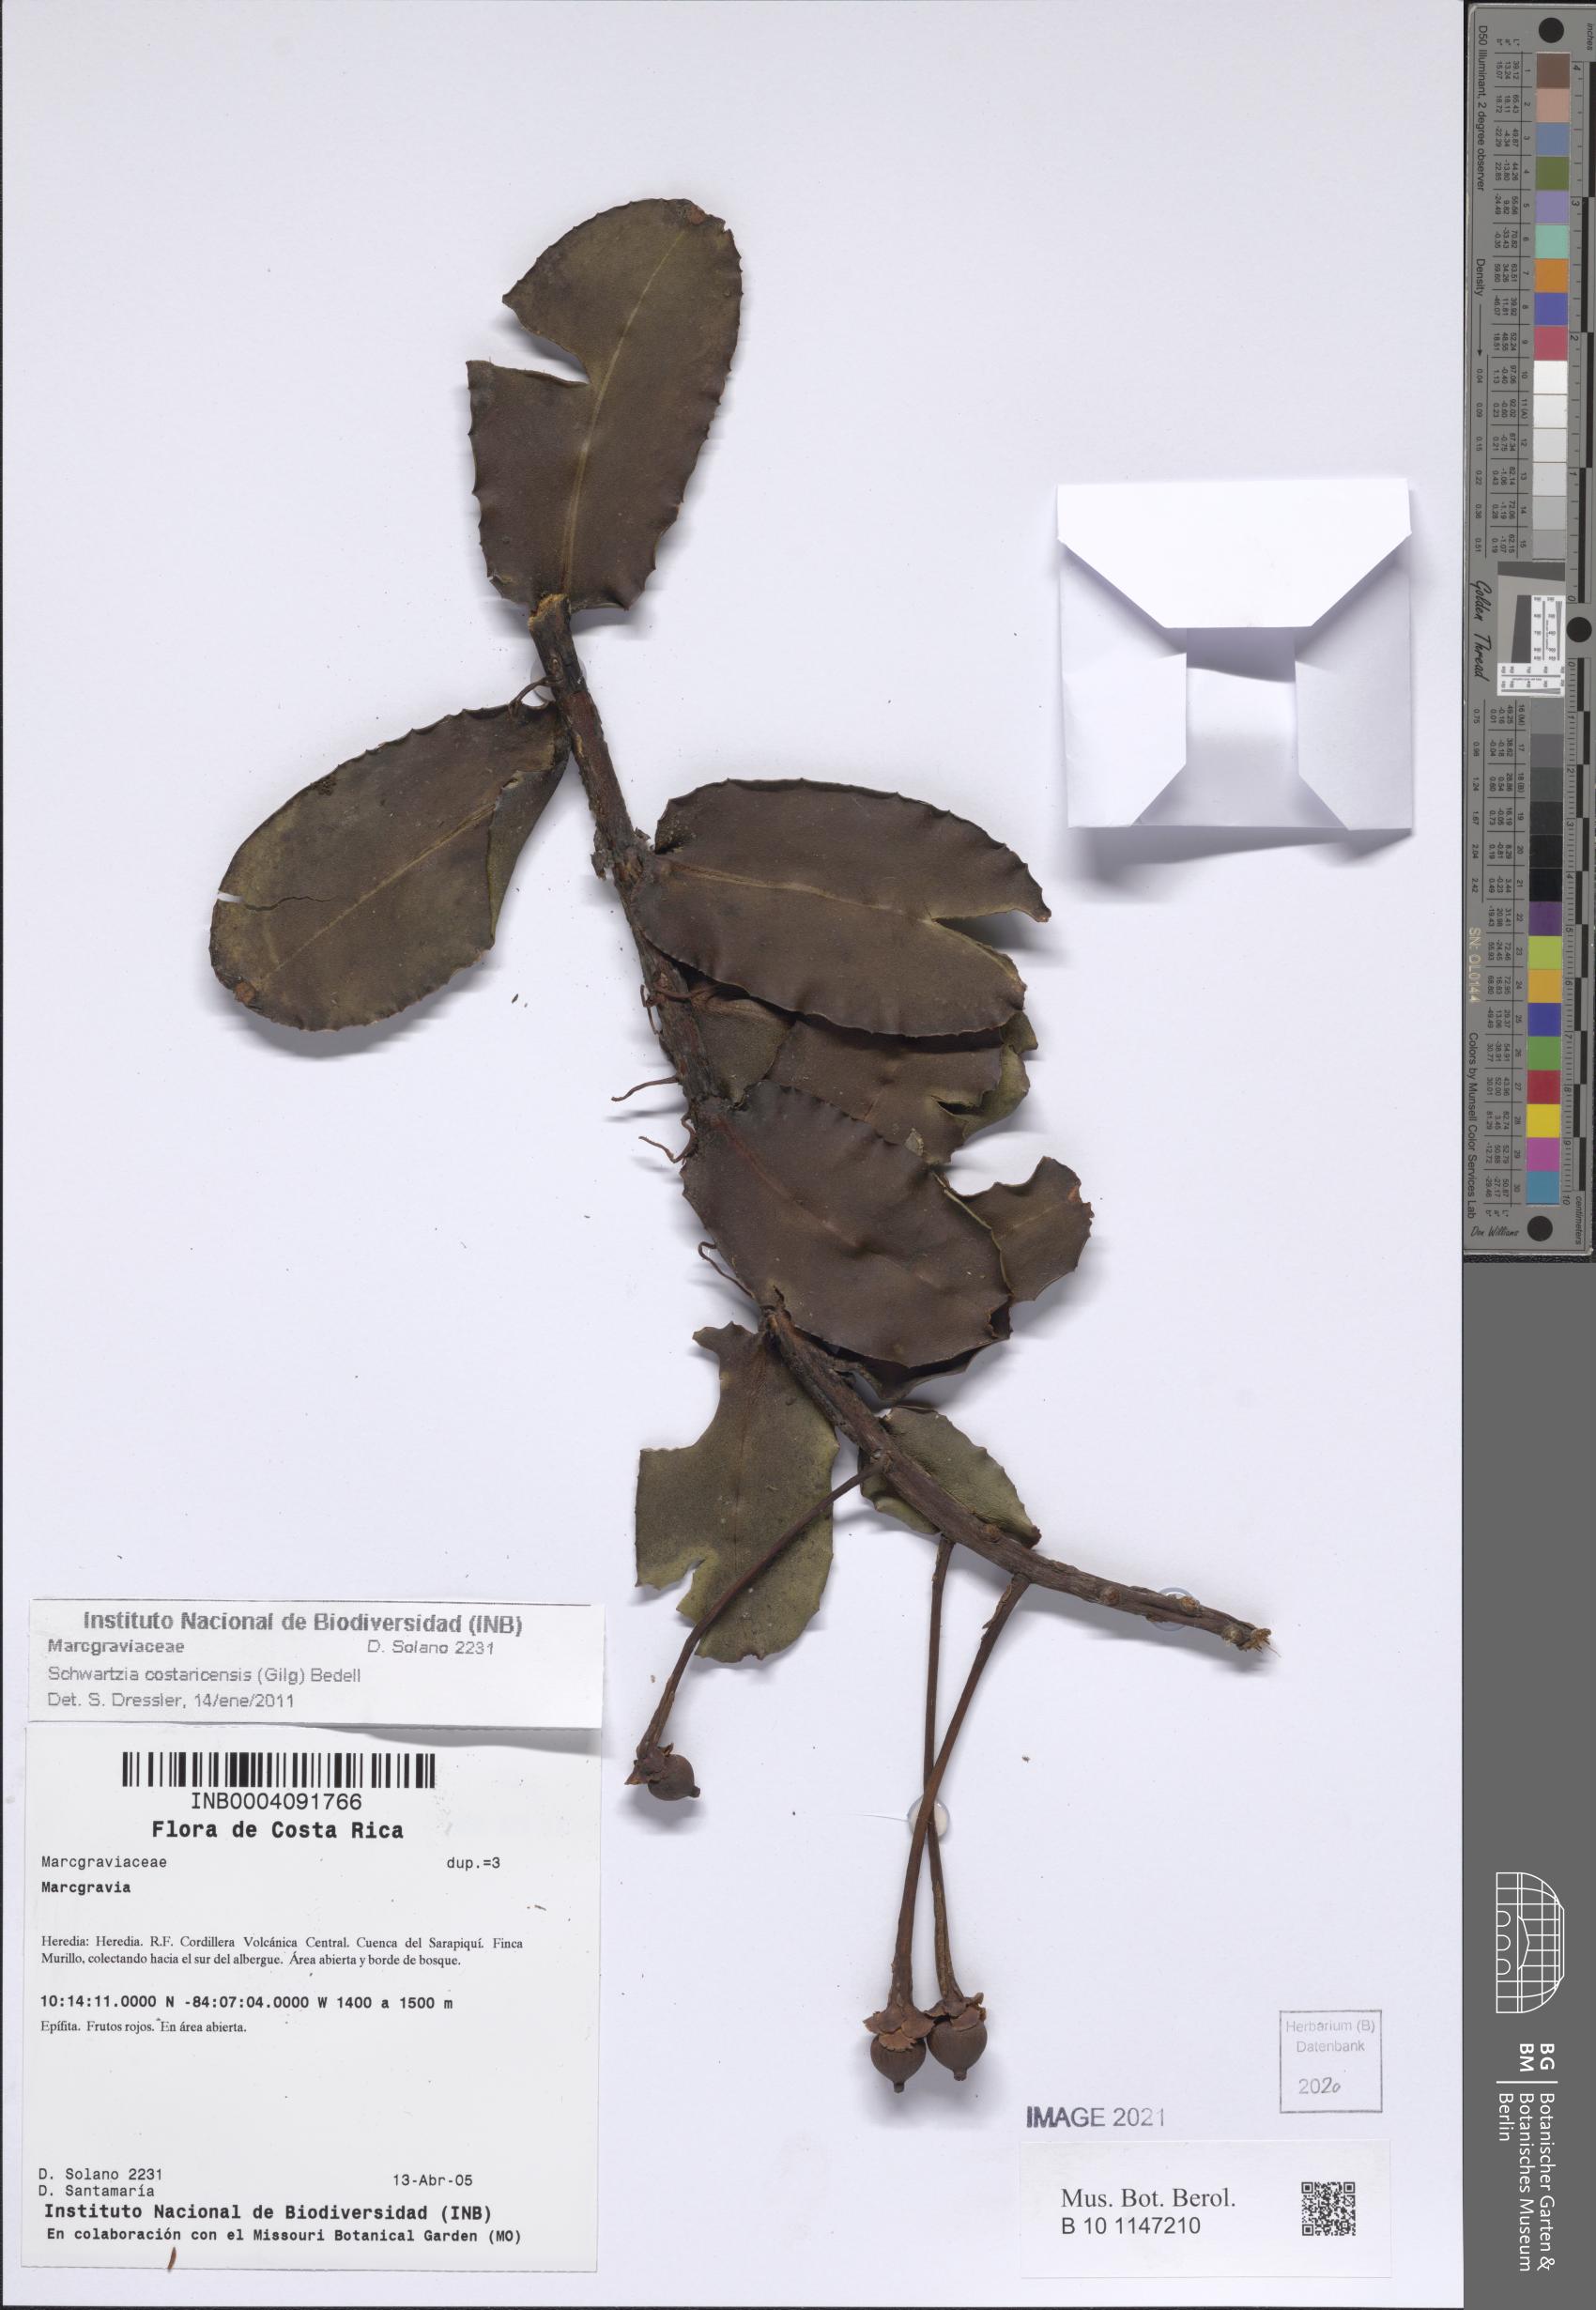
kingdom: Plantae
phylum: Tracheophyta
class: Magnoliopsida
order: Ericales
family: Marcgraviaceae
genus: Schwartzia
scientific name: Schwartzia costaricensis
